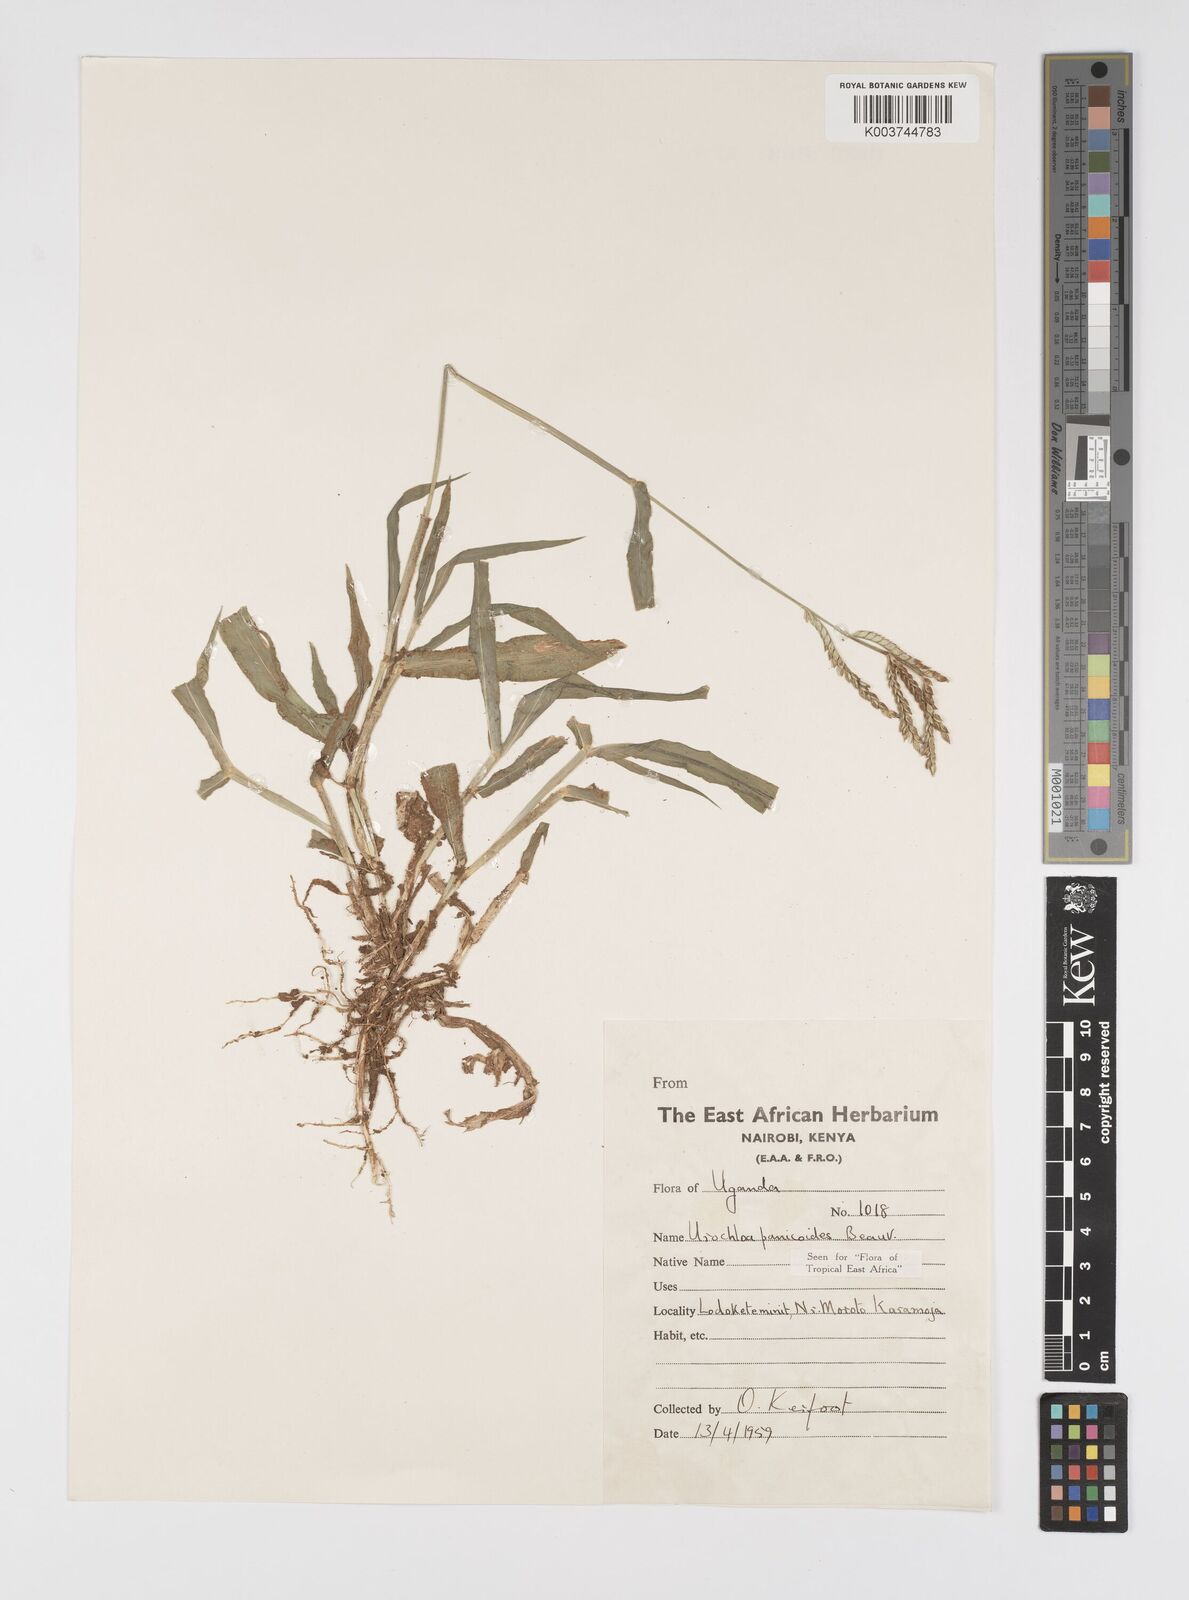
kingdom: Plantae
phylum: Tracheophyta
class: Liliopsida
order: Poales
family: Poaceae
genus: Urochloa
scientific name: Urochloa panicoides
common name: Sharp-flowered signal-grass
